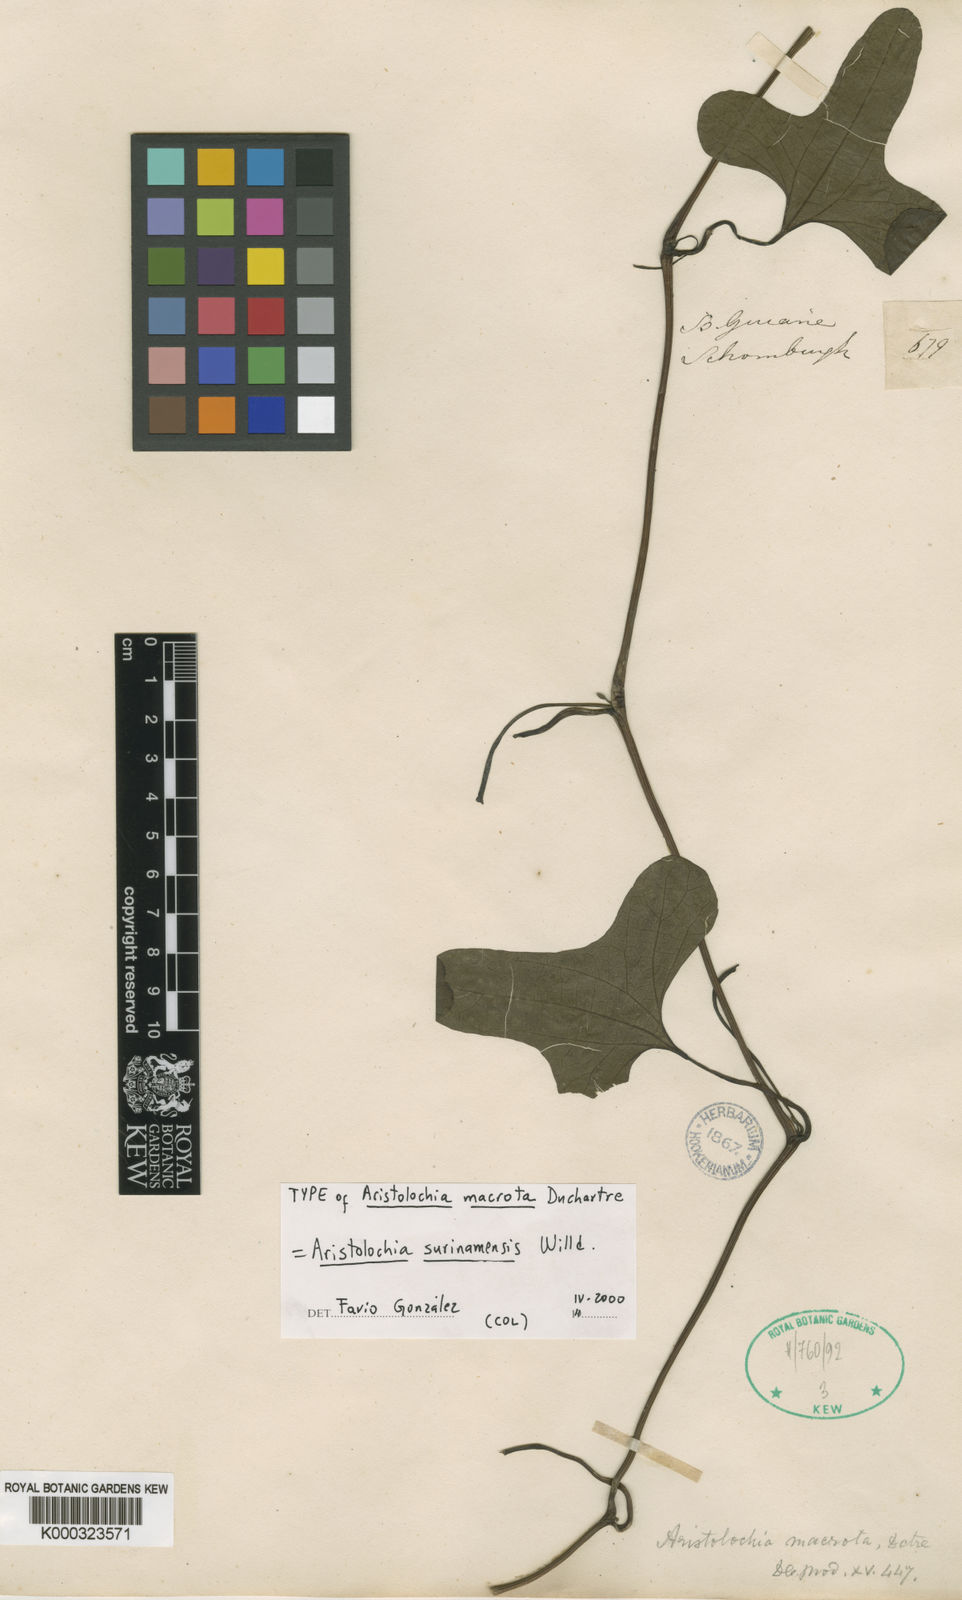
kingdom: Plantae
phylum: Tracheophyta
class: Magnoliopsida
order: Piperales
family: Aristolochiaceae
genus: Aristolochia
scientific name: Aristolochia
